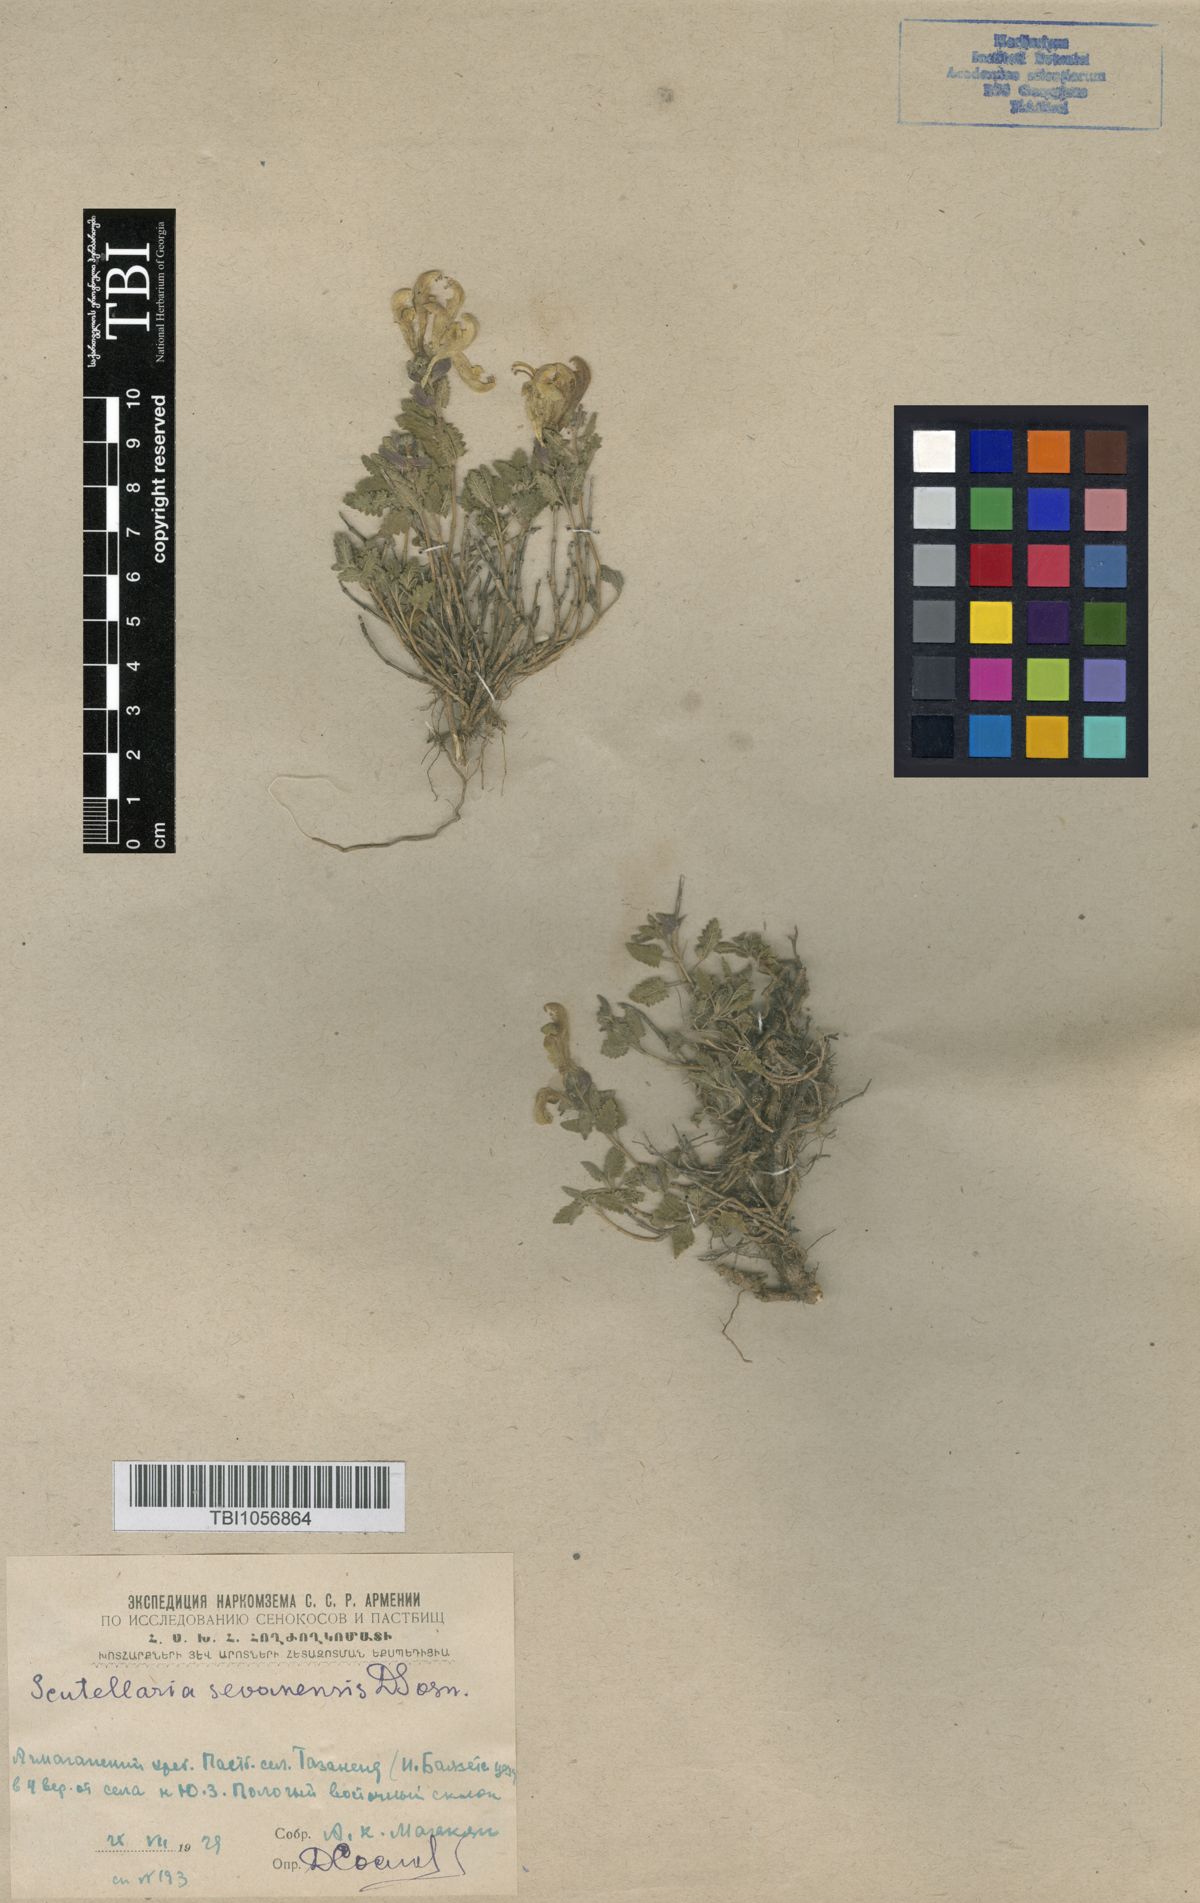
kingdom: Plantae
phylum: Tracheophyta
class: Magnoliopsida
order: Lamiales
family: Lamiaceae
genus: Scutellaria
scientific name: Scutellaria sevanensis
